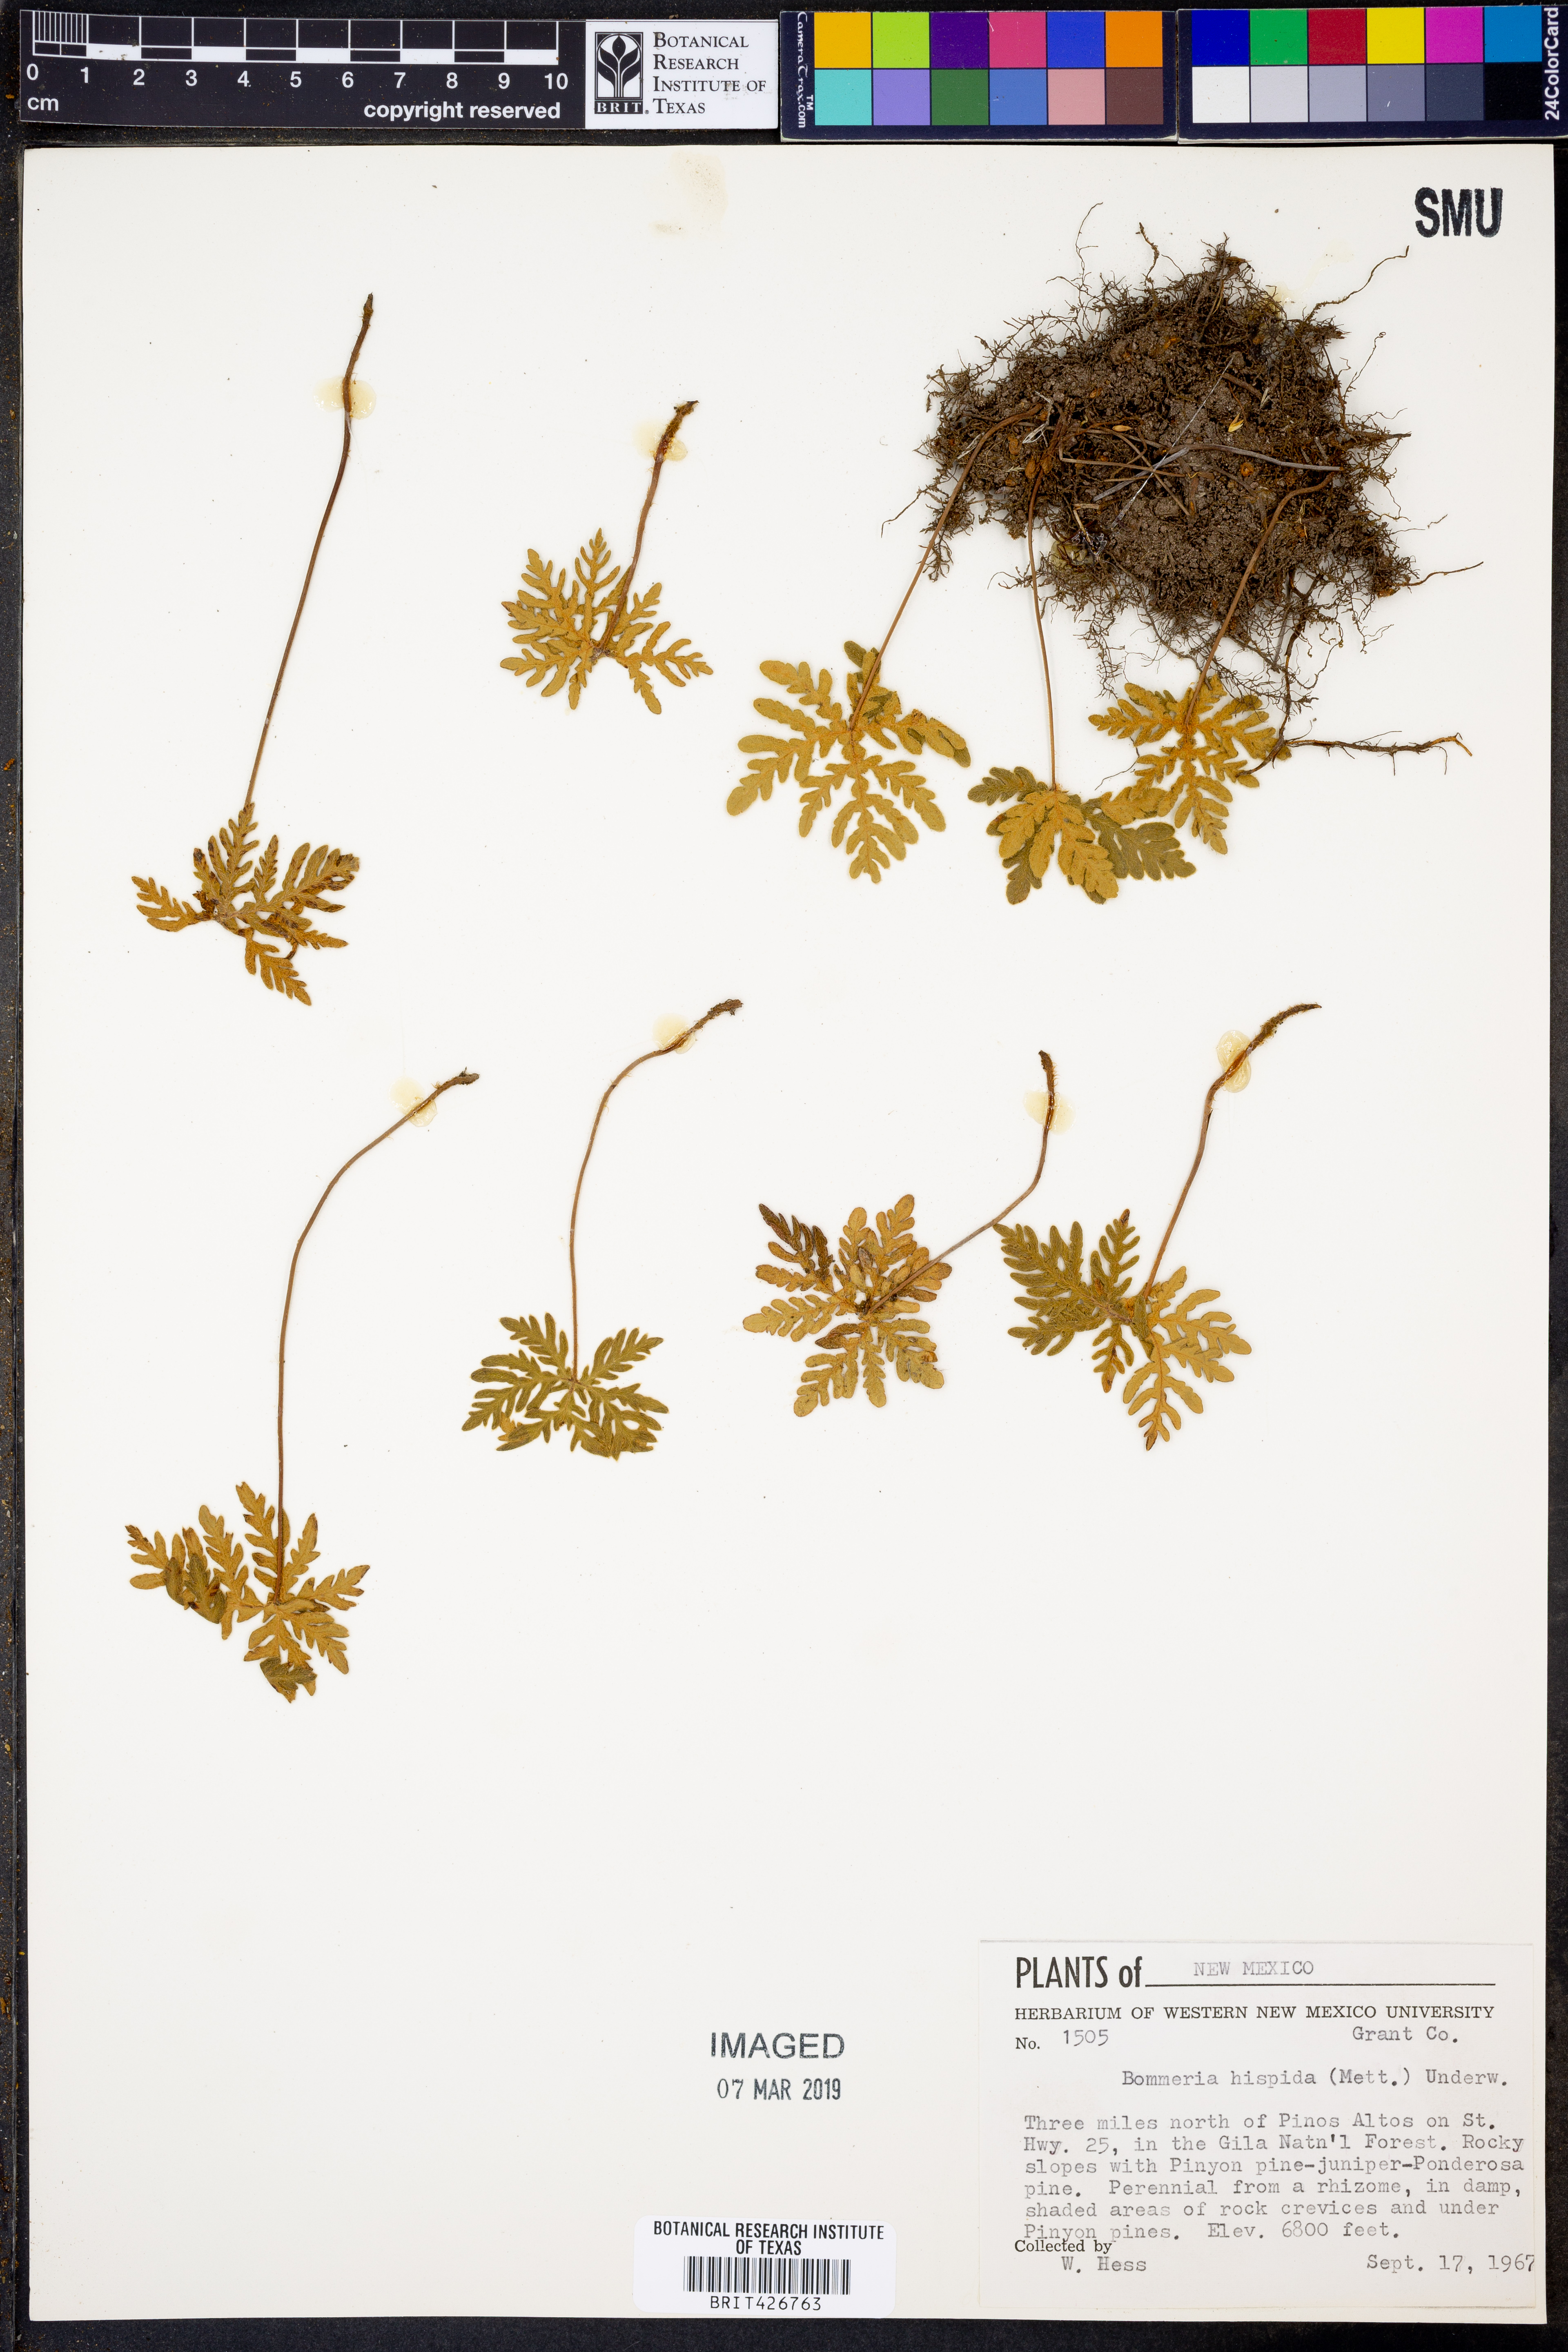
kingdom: Plantae
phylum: Tracheophyta
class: Polypodiopsida
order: Polypodiales
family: Pteridaceae
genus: Bommeria
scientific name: Bommeria hispida
